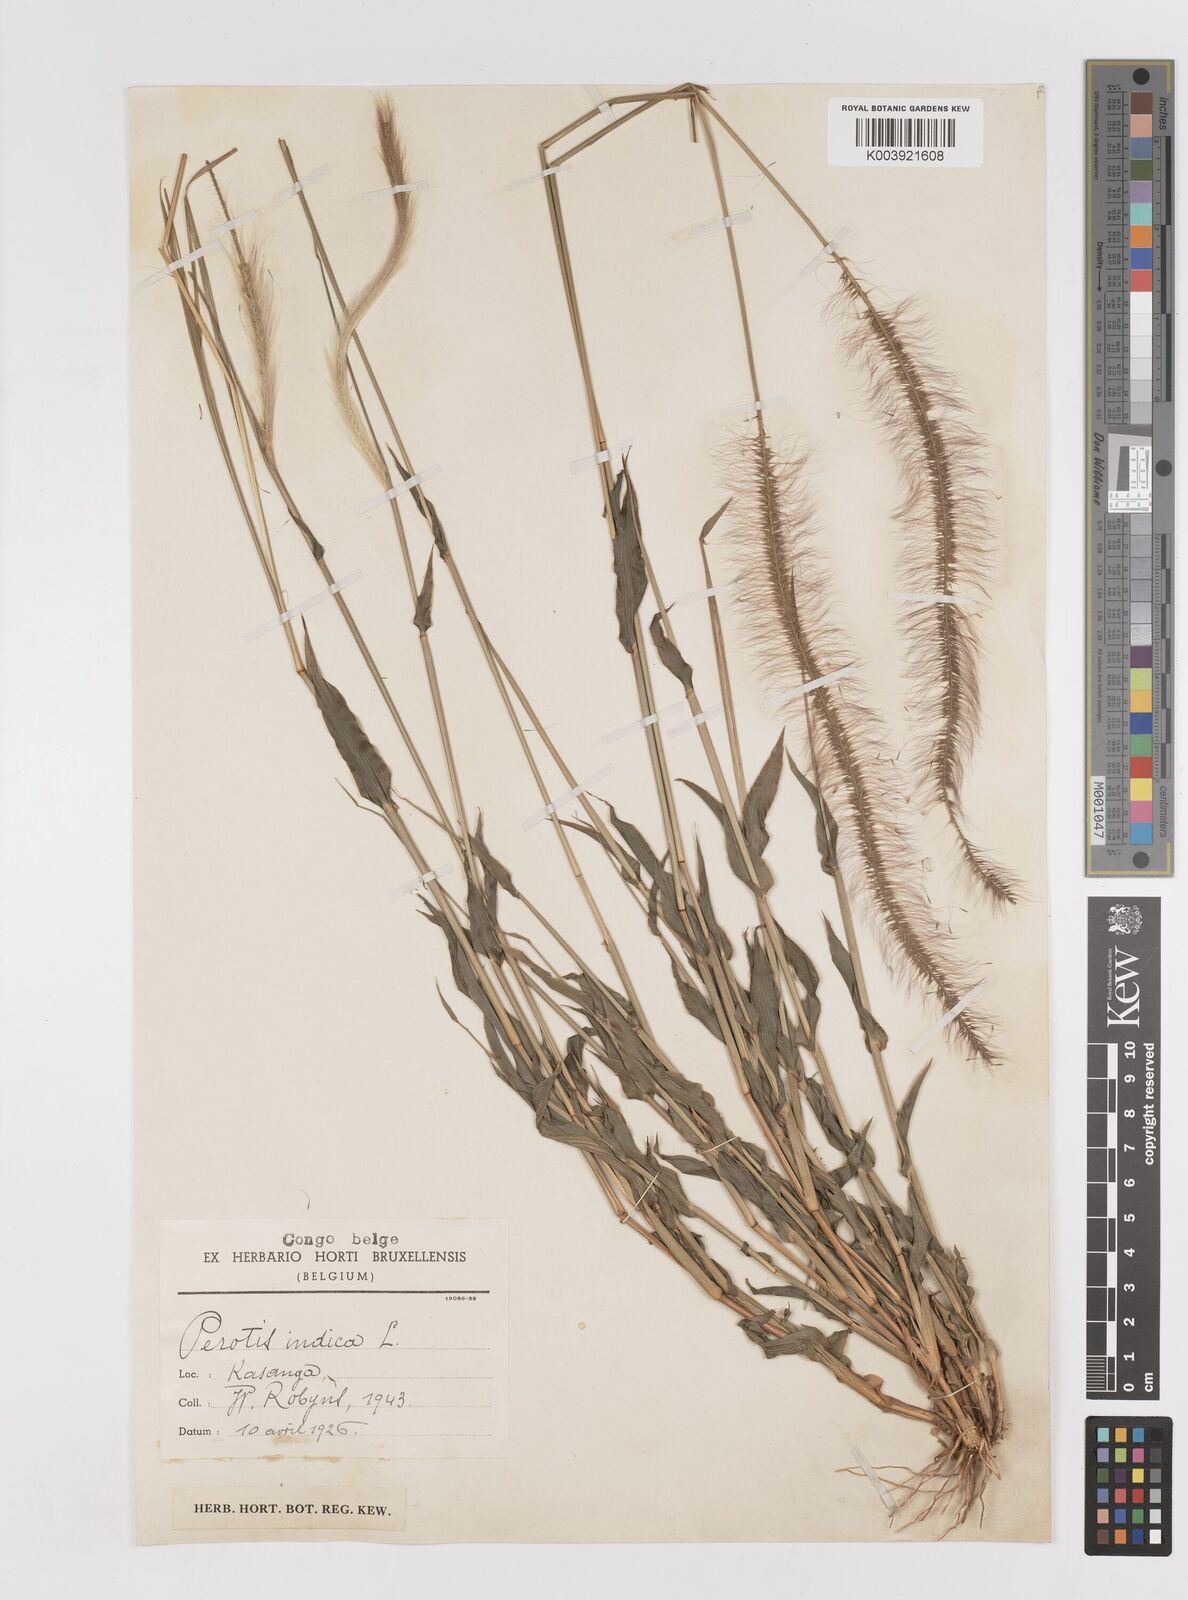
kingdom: Plantae
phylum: Tracheophyta
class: Liliopsida
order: Poales
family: Poaceae
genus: Perotis
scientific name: Perotis patens
